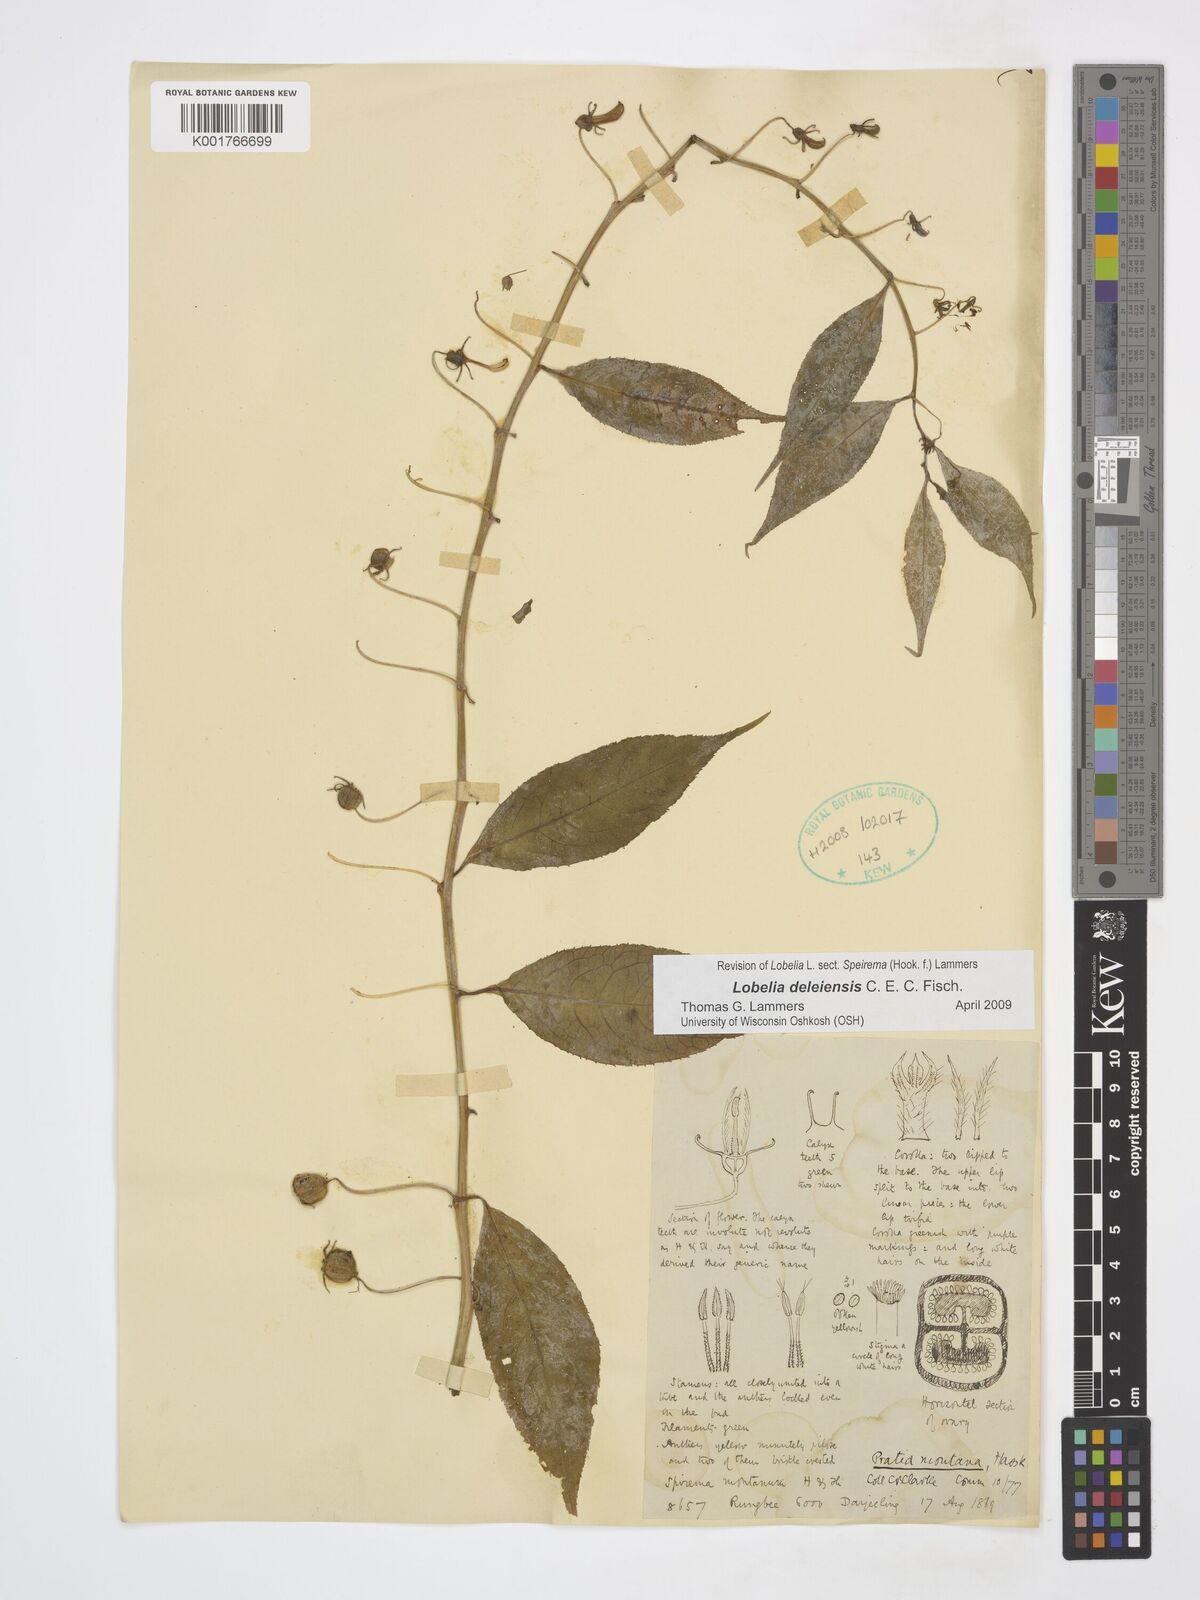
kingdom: Plantae
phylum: Tracheophyta
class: Magnoliopsida
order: Asterales
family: Campanulaceae
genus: Lobelia
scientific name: Lobelia deleiensis
